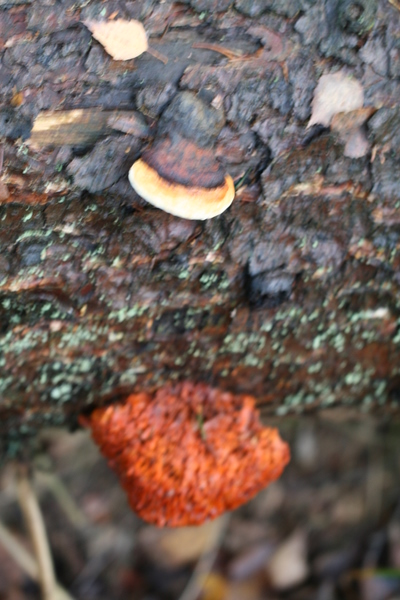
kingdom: Fungi
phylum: Basidiomycota
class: Agaricomycetes
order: Polyporales
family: Pycnoporellaceae
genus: Pycnoporellus
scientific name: Pycnoporellus fulgens
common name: flammeporesvamp
